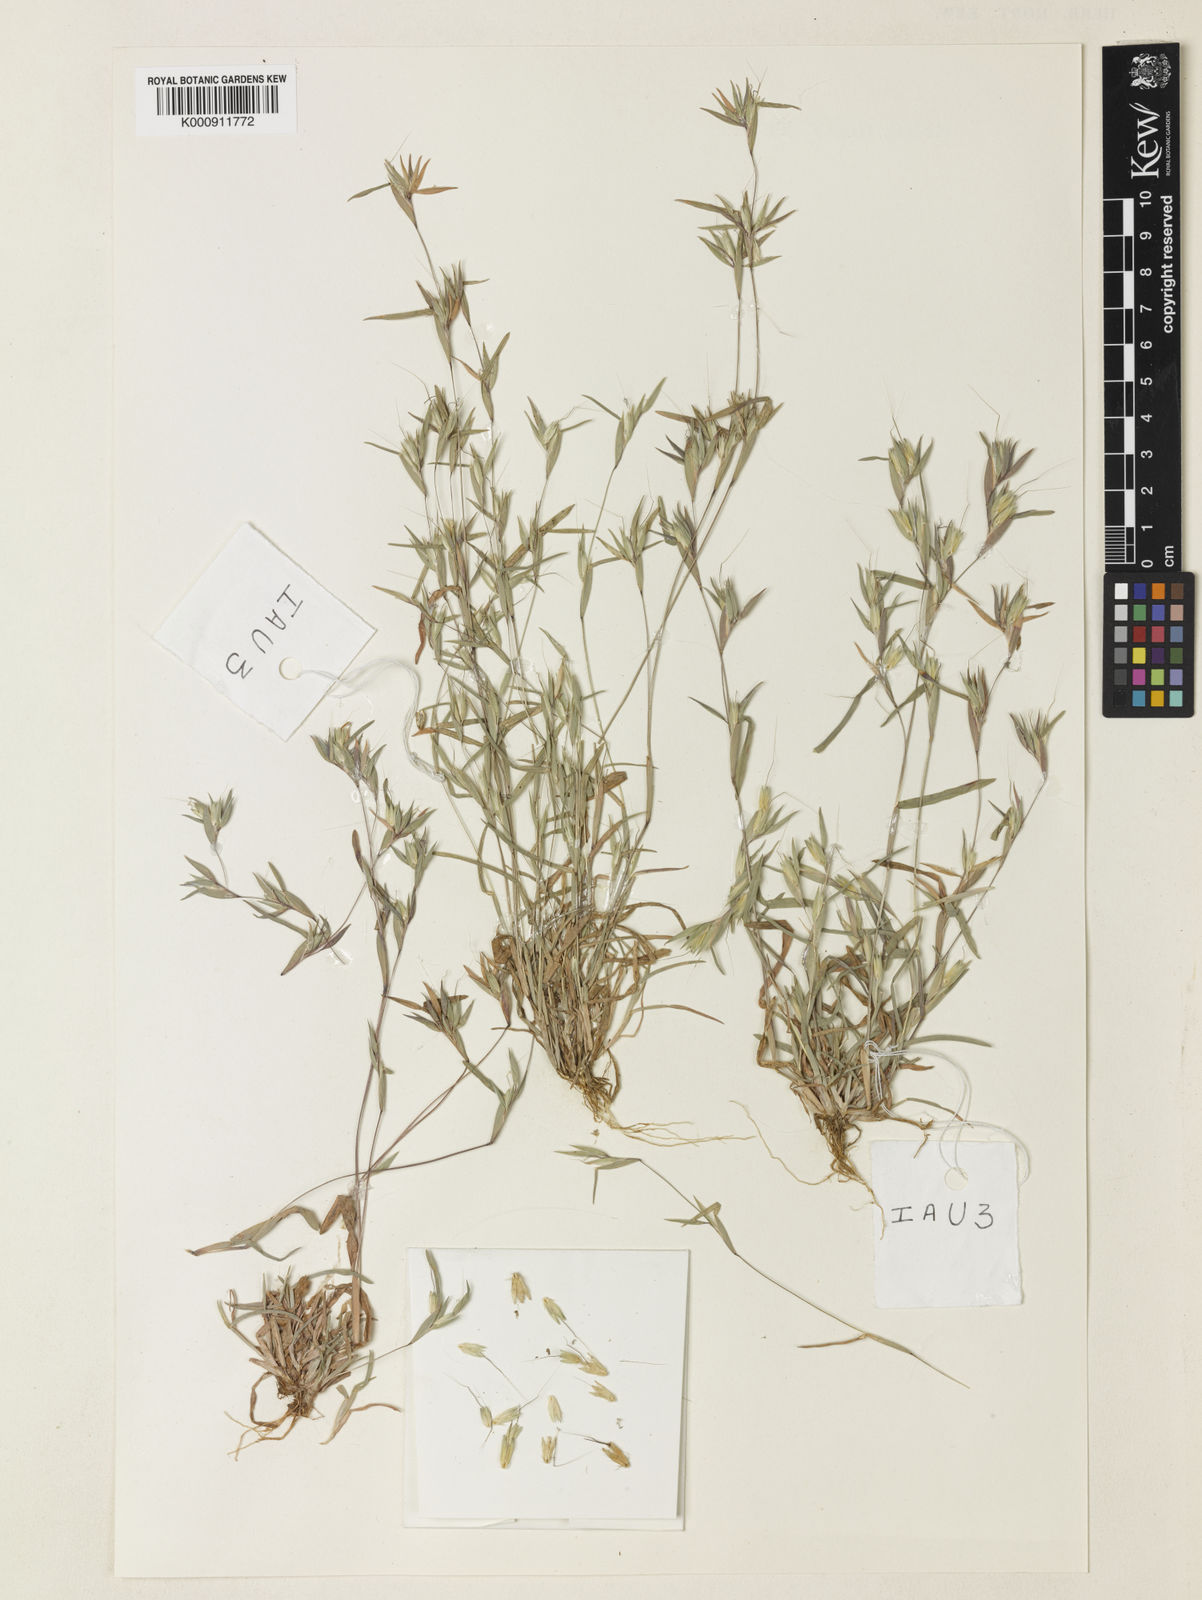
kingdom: Plantae
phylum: Tracheophyta
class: Liliopsida
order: Poales
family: Poaceae
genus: Iseilema
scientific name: Iseilema hubbardii
